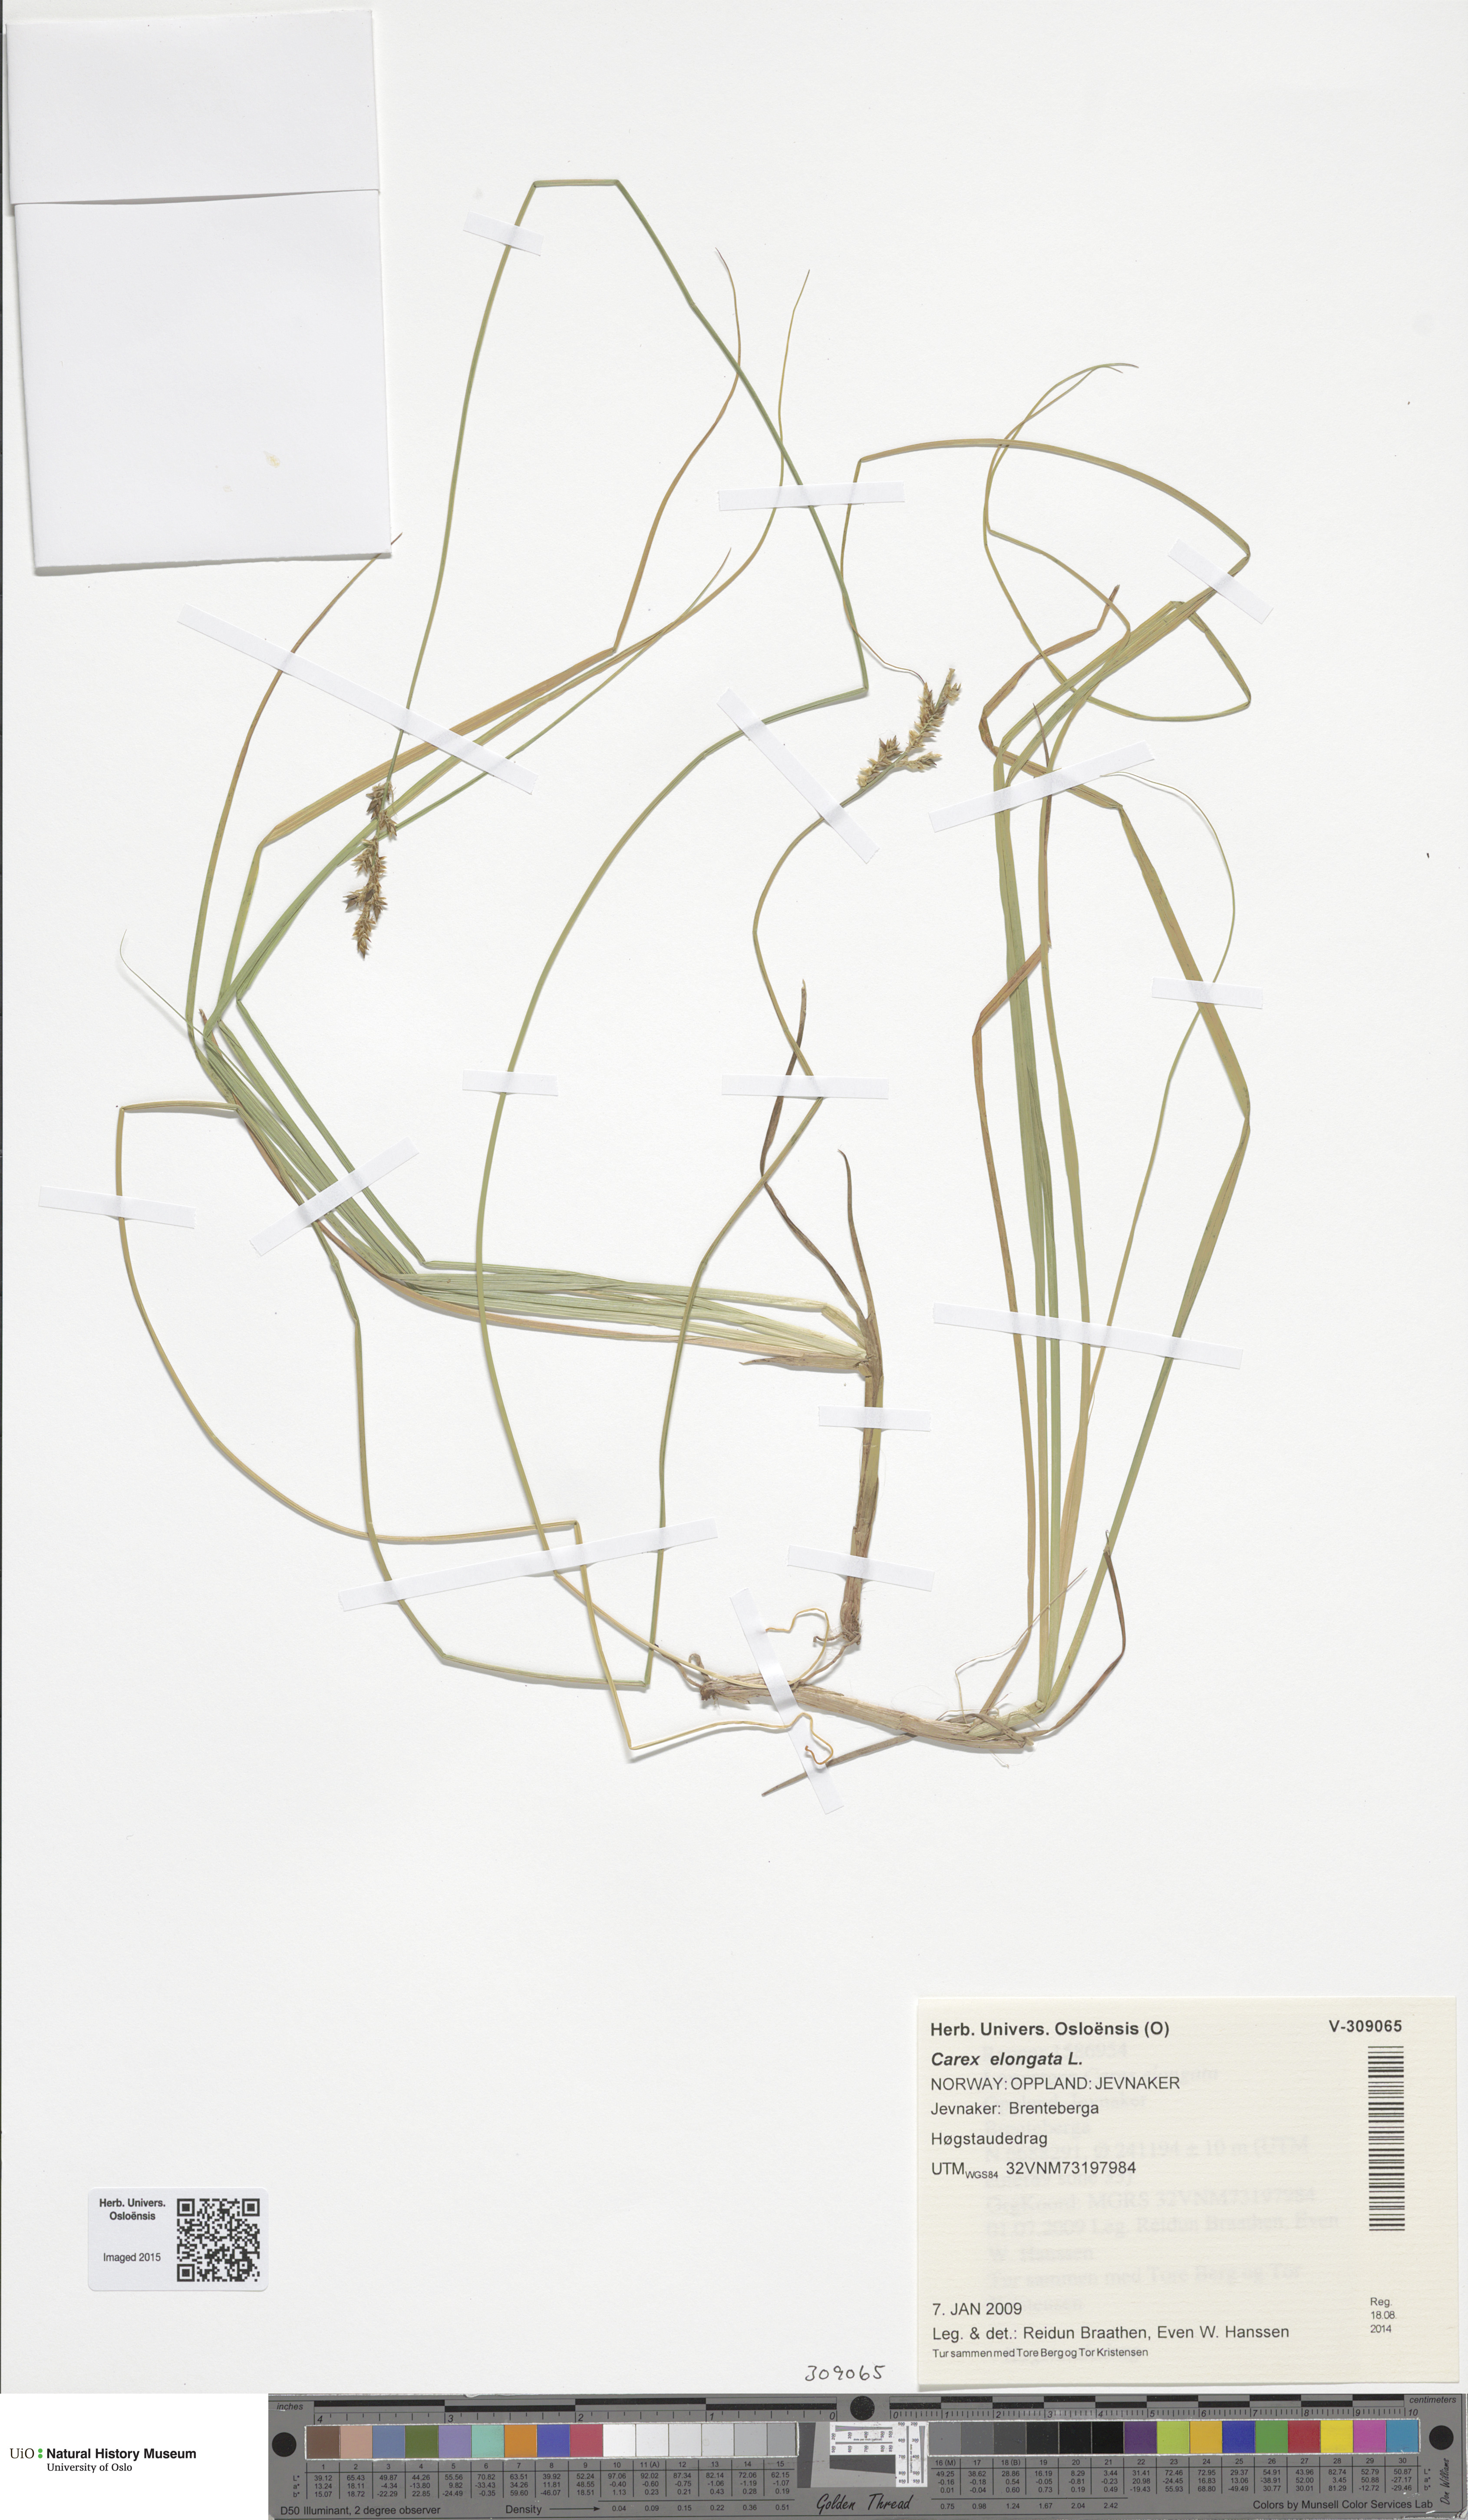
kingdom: Plantae
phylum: Tracheophyta
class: Liliopsida
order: Poales
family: Cyperaceae
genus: Carex
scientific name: Carex elongata
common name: Elongated sedge
